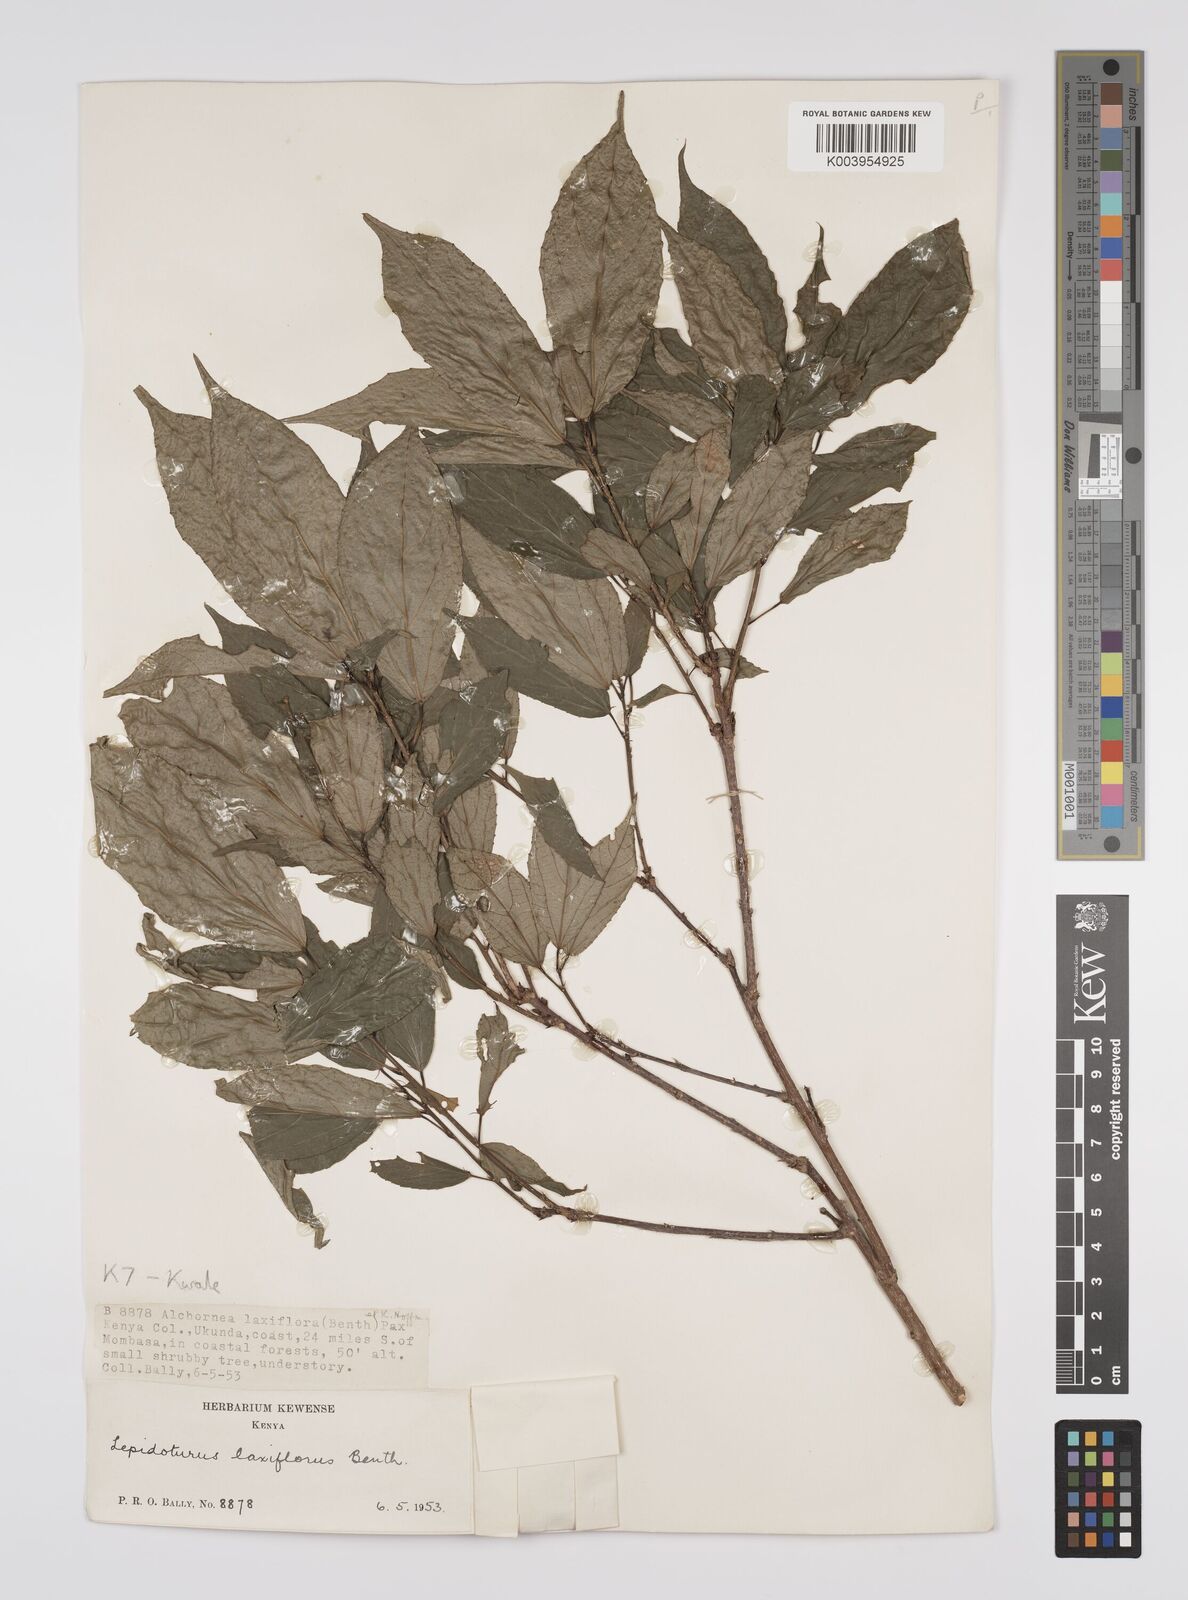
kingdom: Plantae
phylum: Tracheophyta
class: Magnoliopsida
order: Malpighiales
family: Euphorbiaceae
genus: Alchornea
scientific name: Alchornea laxiflora
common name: Lowveld bead-string
